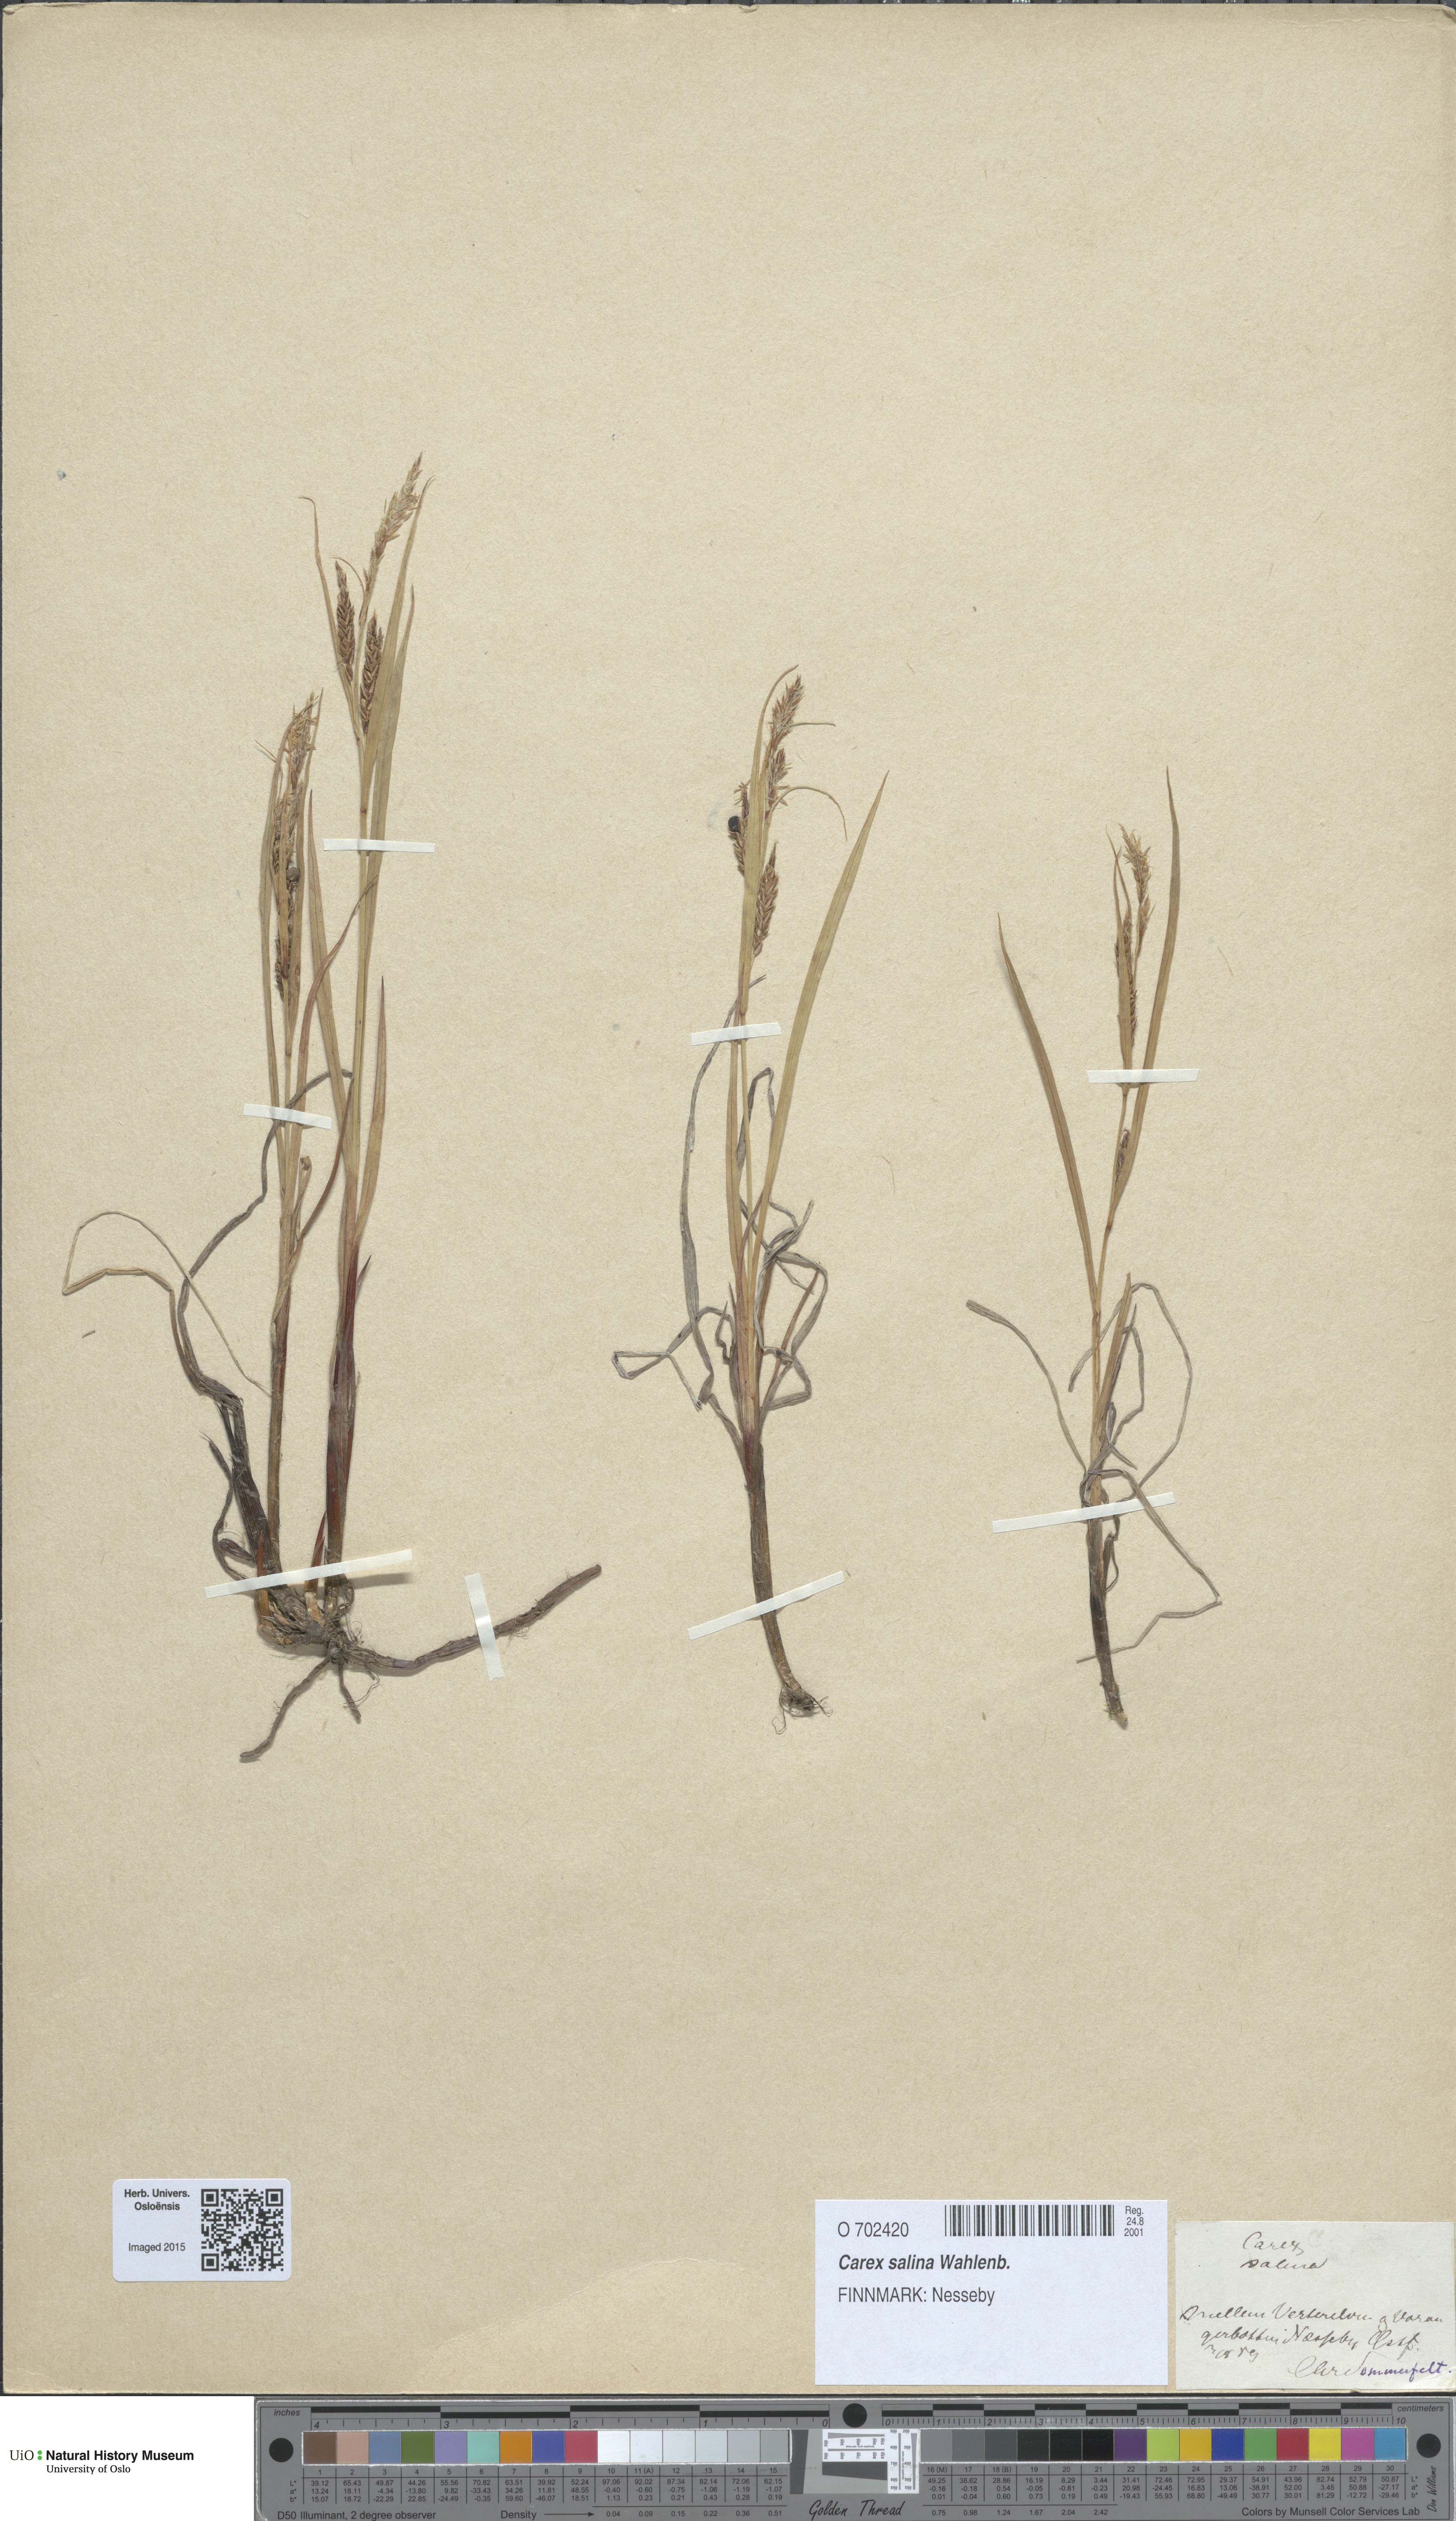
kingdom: Plantae
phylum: Tracheophyta
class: Liliopsida
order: Poales
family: Cyperaceae
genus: Carex
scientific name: Carex salina
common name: Saltmarsh sedge
